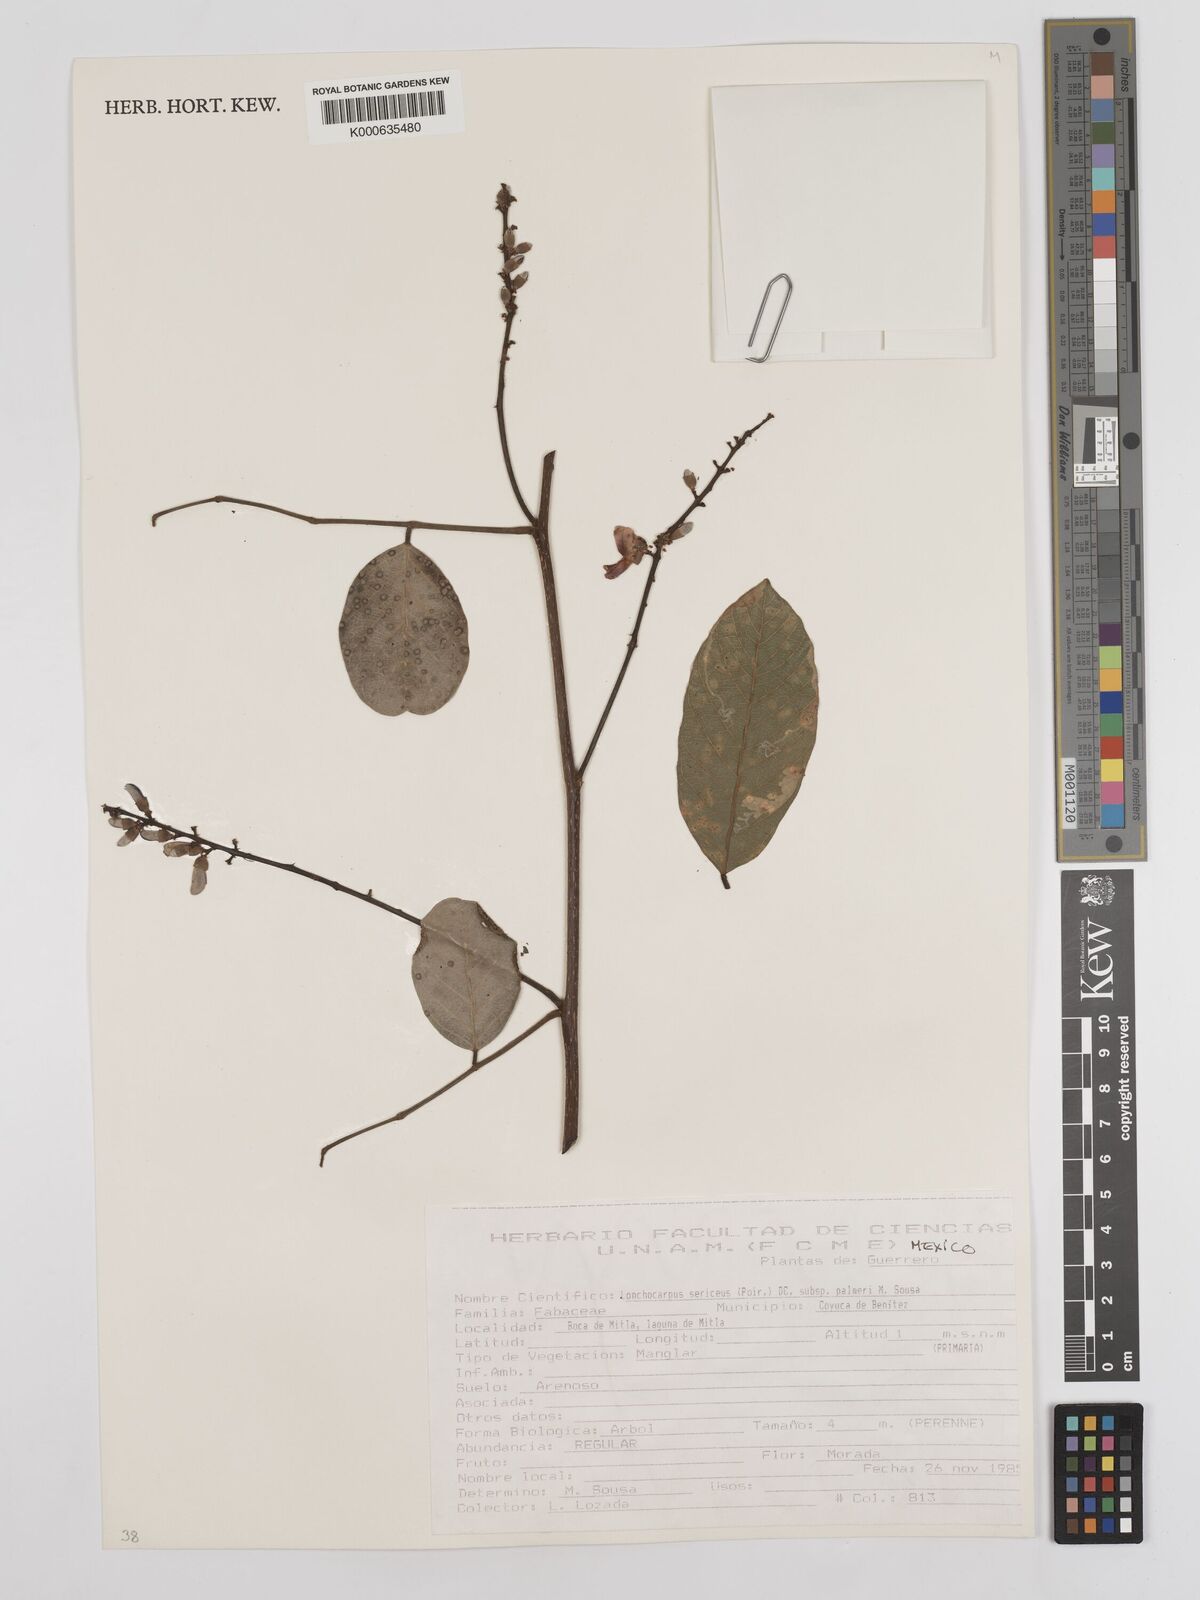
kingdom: Plantae
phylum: Tracheophyta
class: Magnoliopsida
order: Fabales
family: Fabaceae
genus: Lonchocarpus
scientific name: Lonchocarpus palmeri
